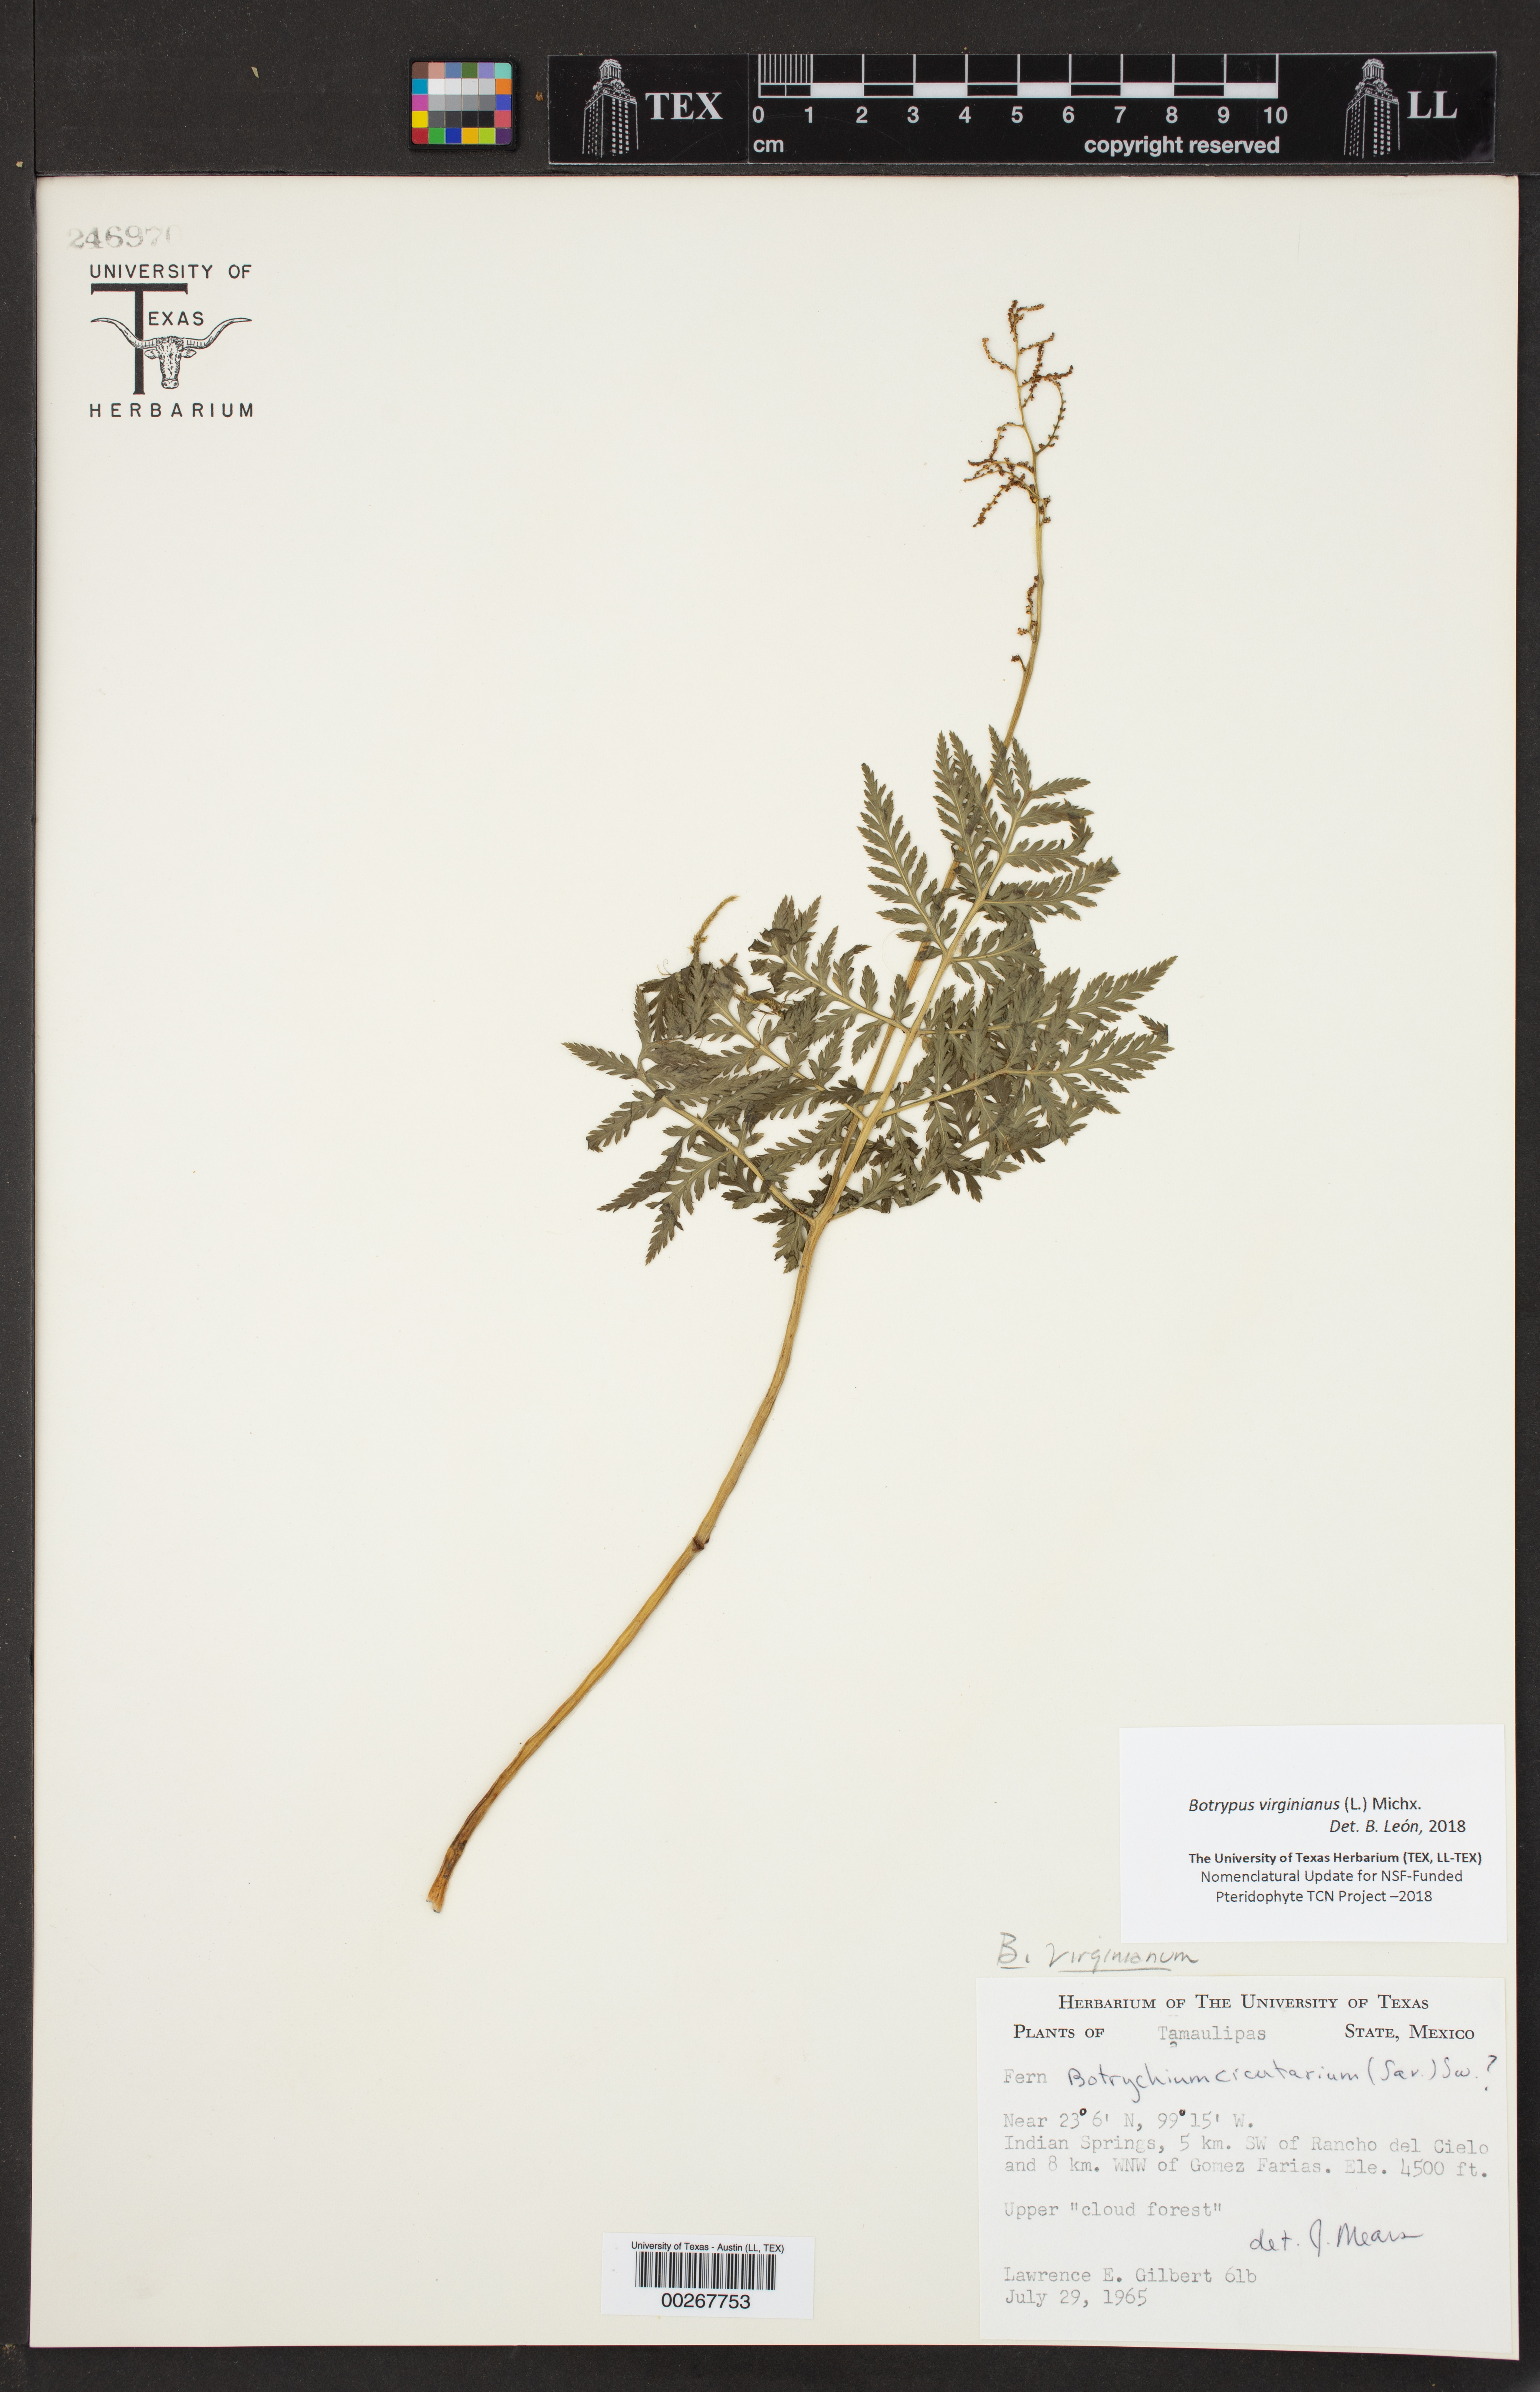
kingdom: Plantae
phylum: Tracheophyta
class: Polypodiopsida
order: Ophioglossales
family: Ophioglossaceae
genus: Botrychium
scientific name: Botrychium virginianum
